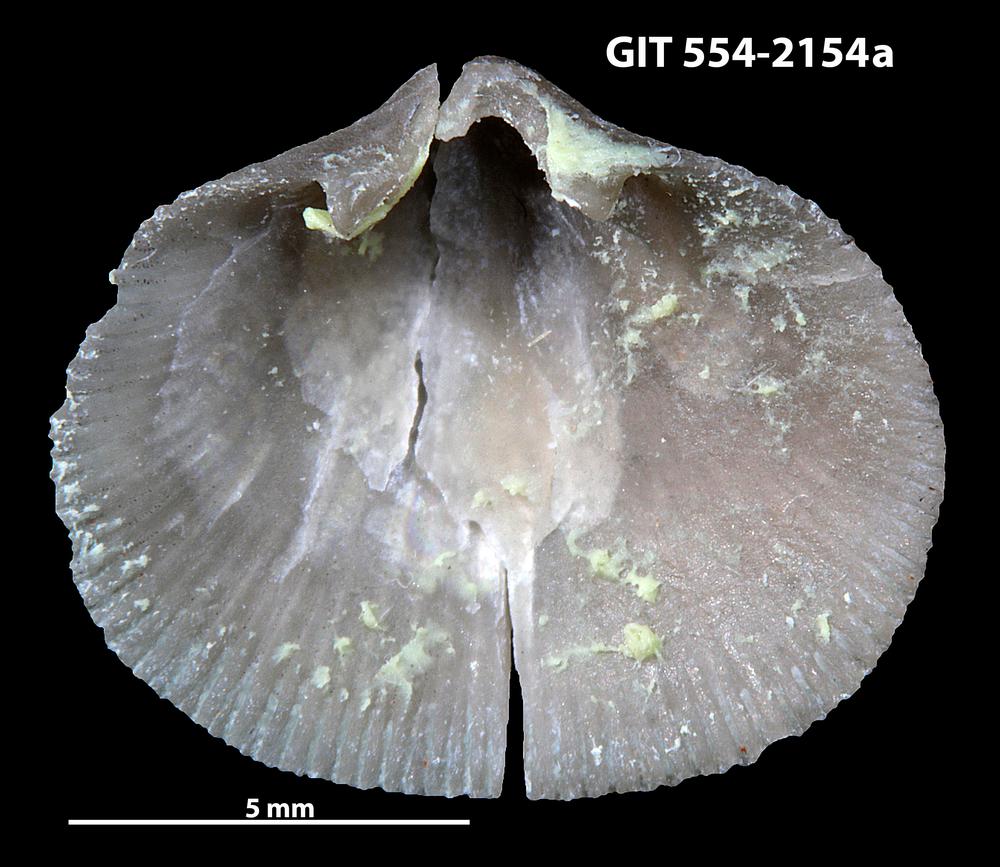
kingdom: Animalia
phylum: Brachiopoda
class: Rhynchonellata
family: Schizophoriidae
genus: Salopina
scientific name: Salopina Dalmanella submedia
